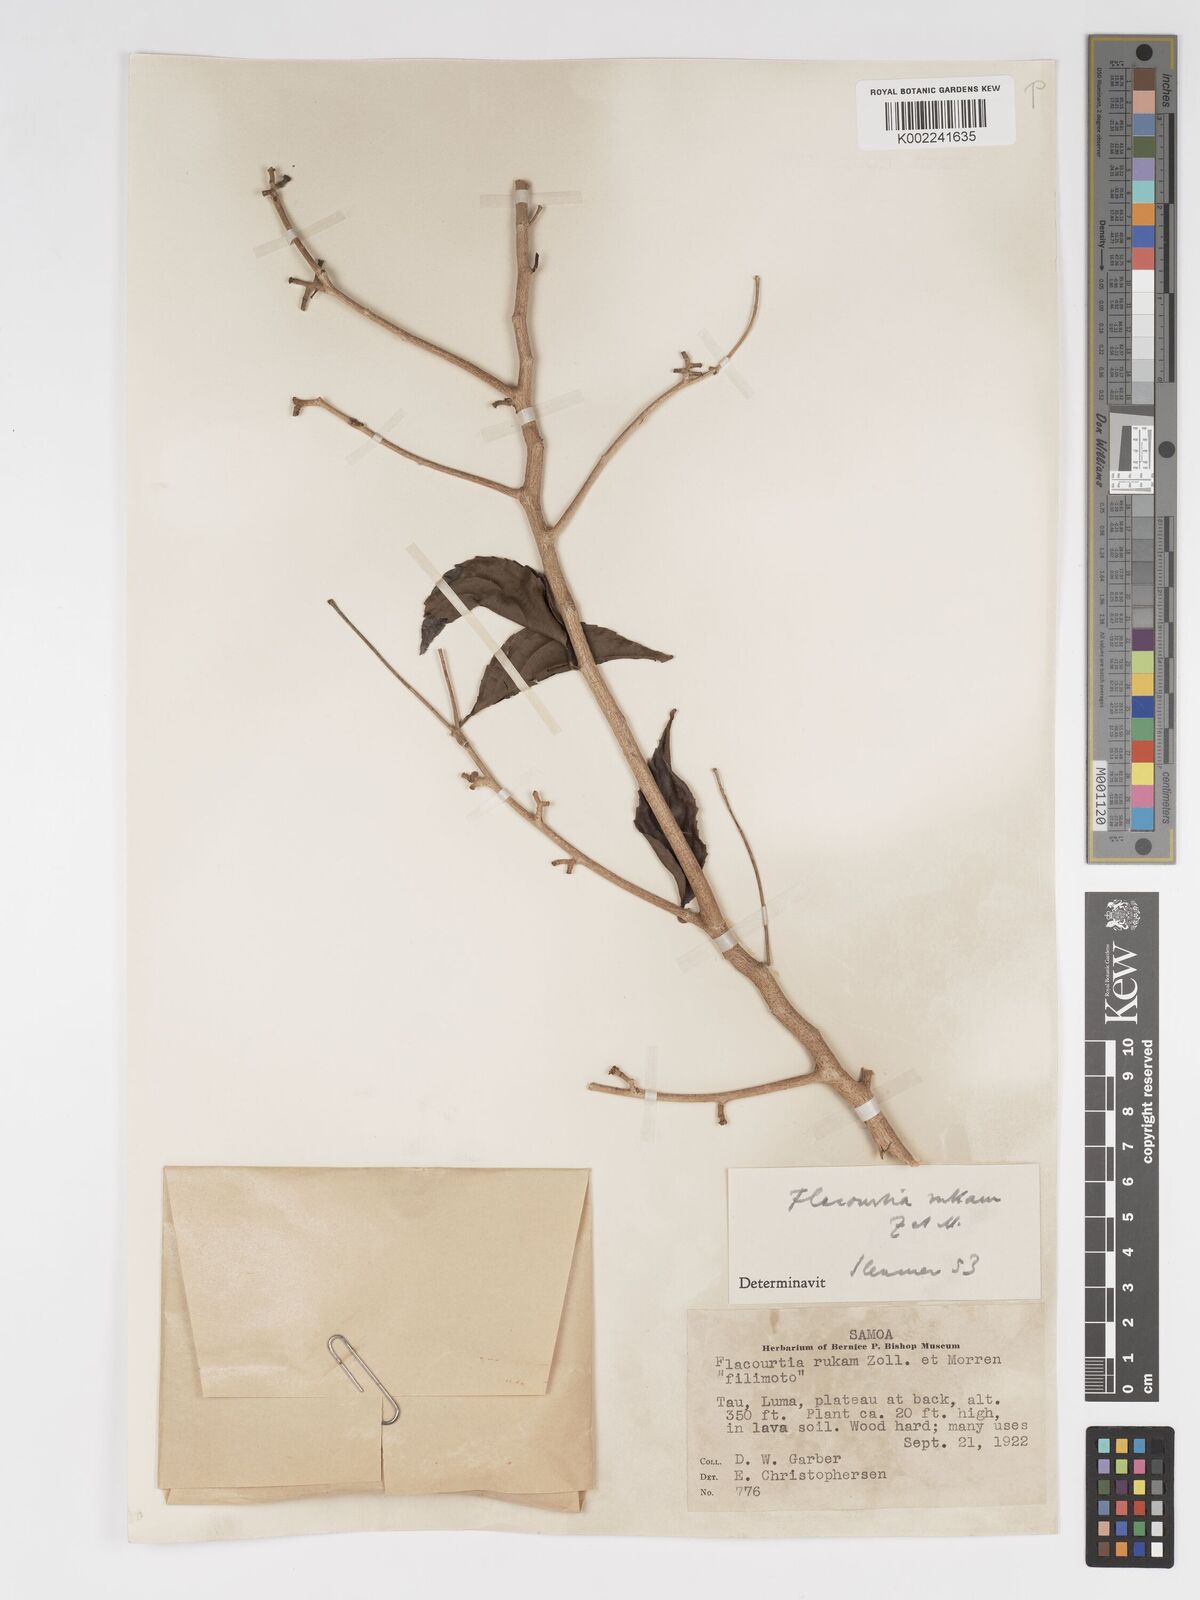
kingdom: Plantae
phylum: Tracheophyta
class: Magnoliopsida
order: Malpighiales
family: Salicaceae
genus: Flacourtia
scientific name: Flacourtia rukam
